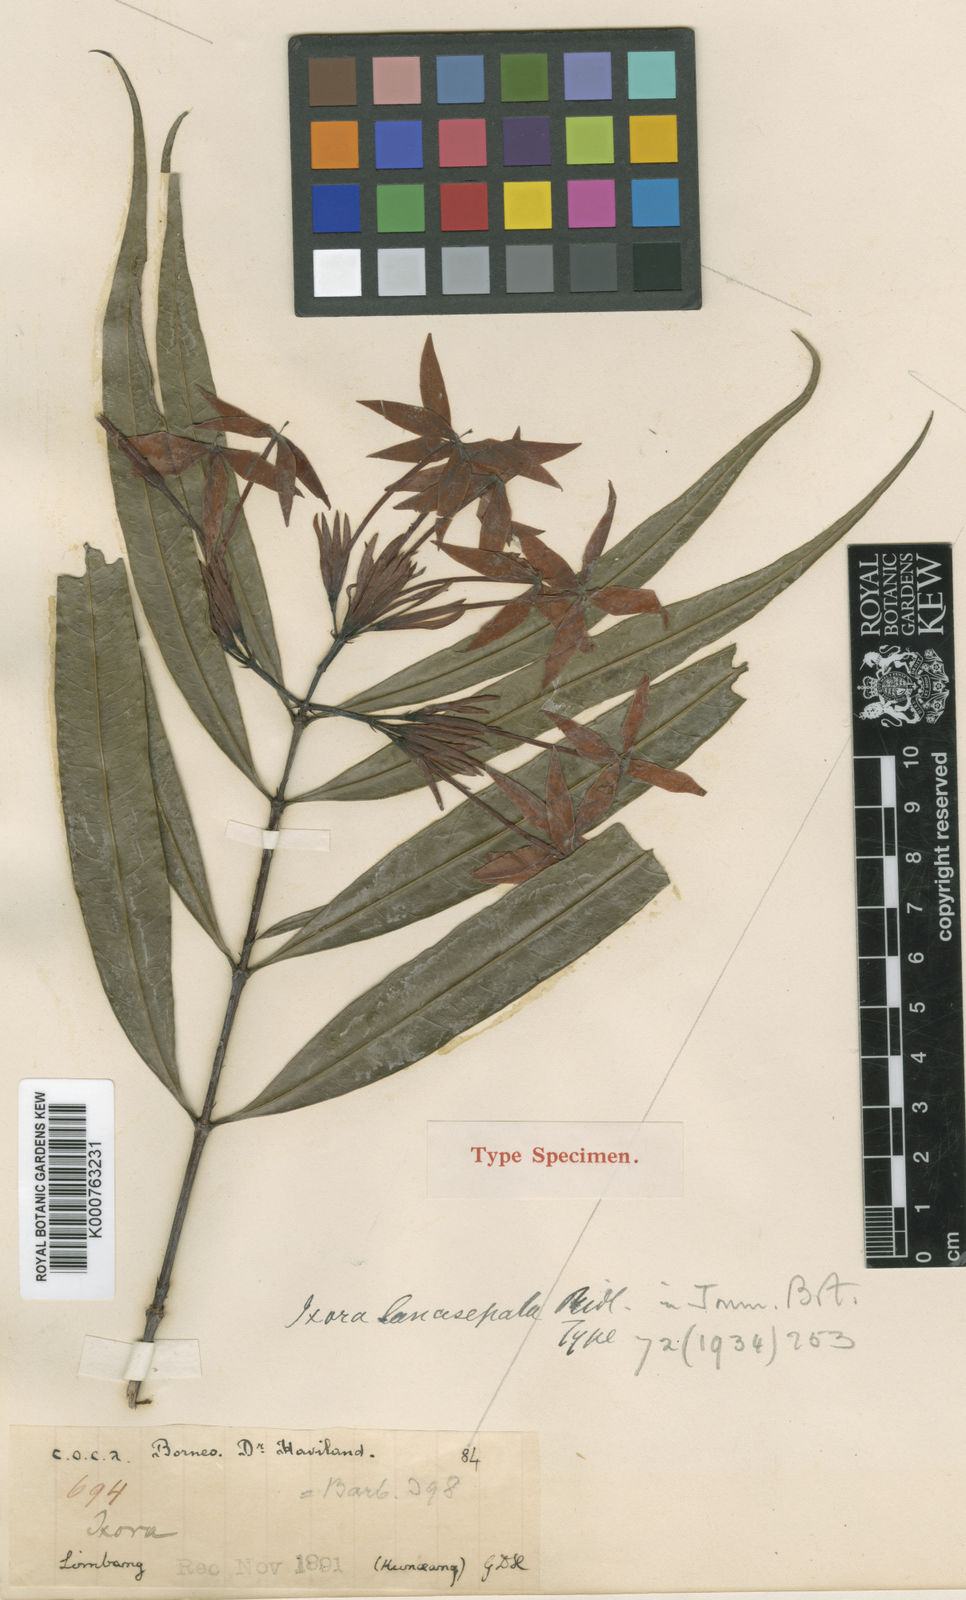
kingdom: Plantae
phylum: Tracheophyta
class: Magnoliopsida
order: Gentianales
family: Rubiaceae
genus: Ixora
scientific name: Ixora lancisepala
